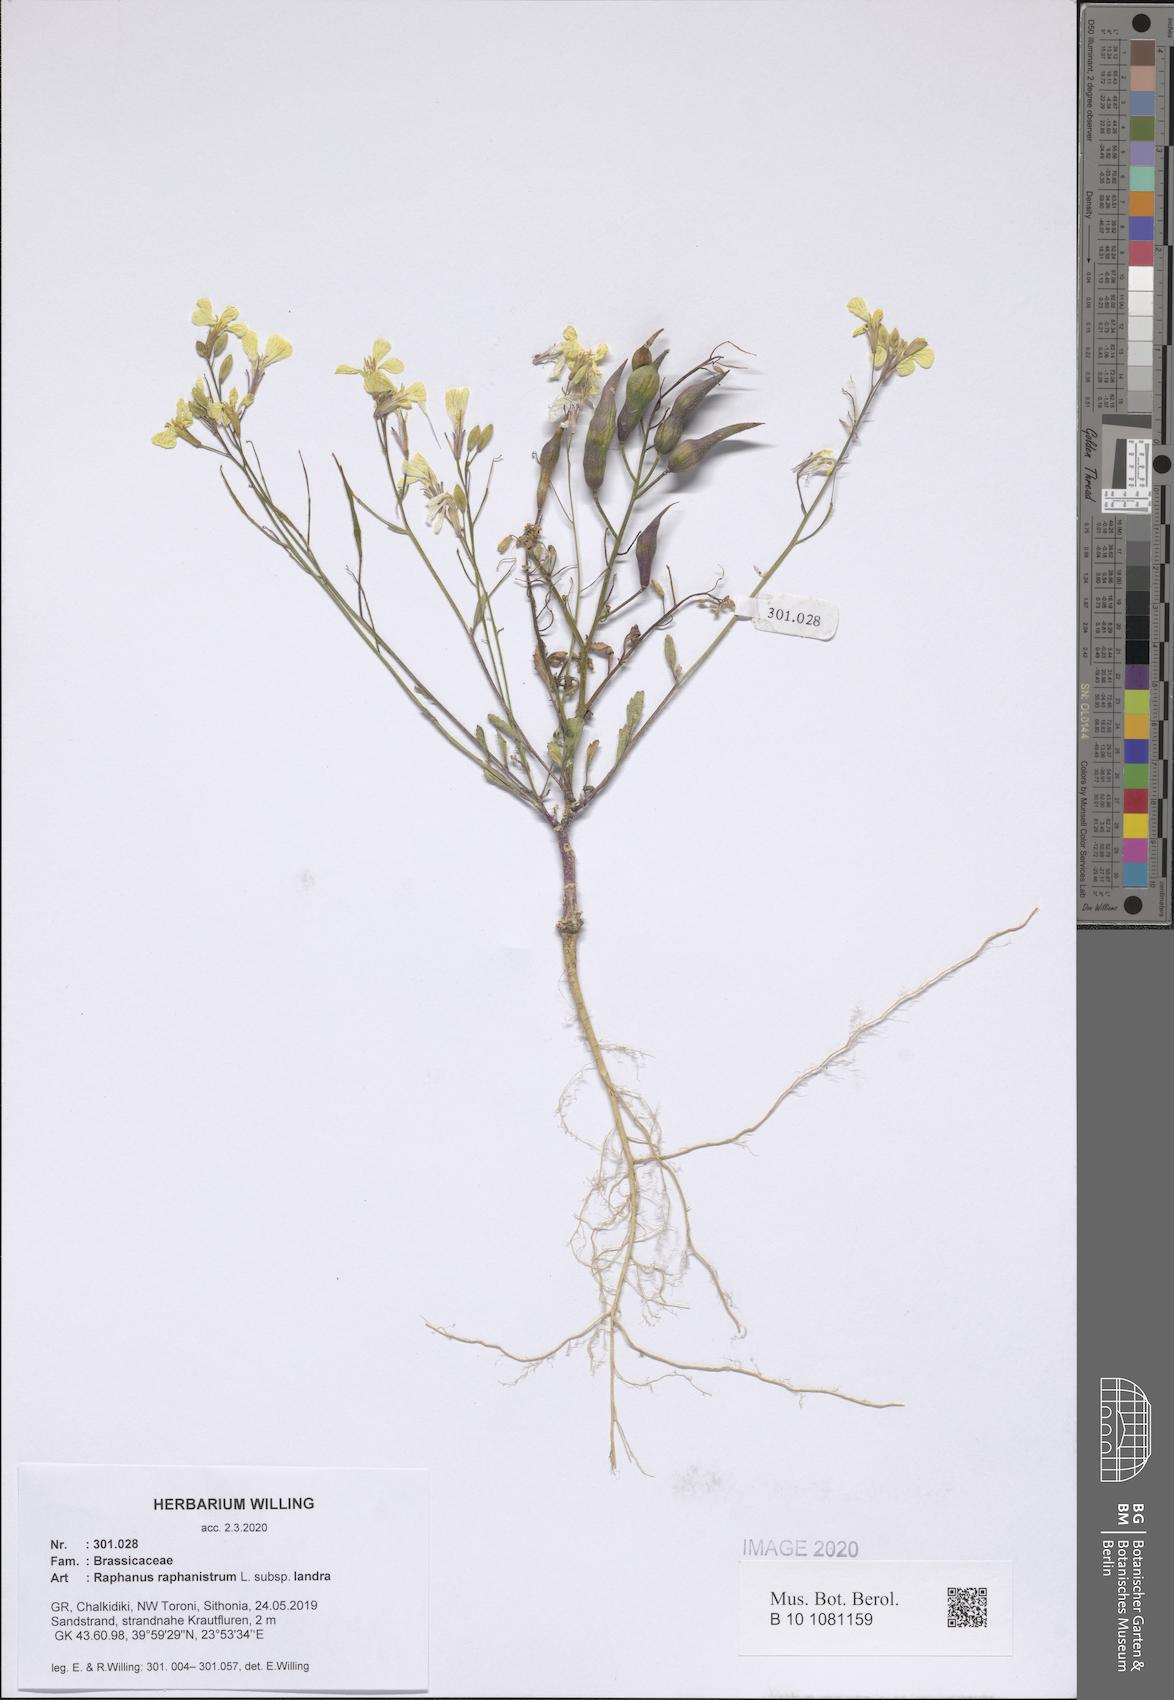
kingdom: Plantae
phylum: Tracheophyta
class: Magnoliopsida
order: Brassicales
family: Brassicaceae
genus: Raphanus
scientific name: Raphanus raphanistrum
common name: Wild radish
